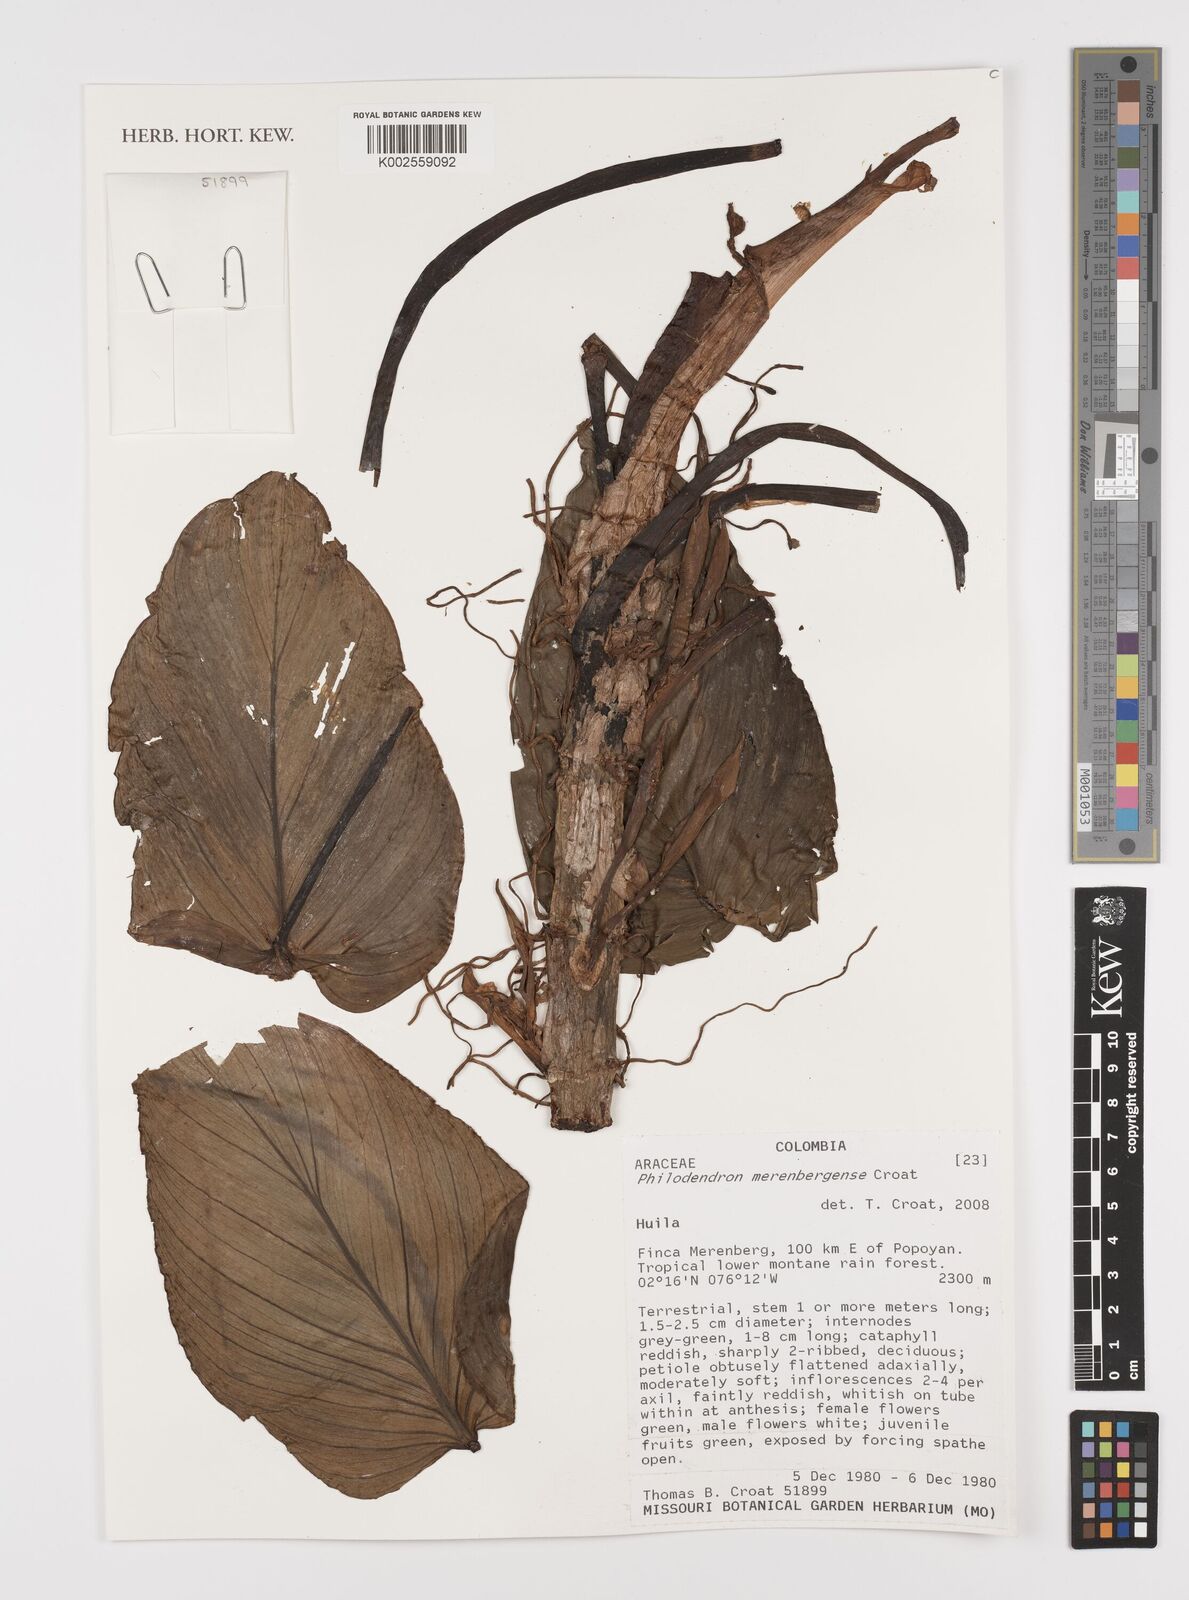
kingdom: Plantae
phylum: Tracheophyta
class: Liliopsida
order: Alismatales
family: Araceae
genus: Philodendron
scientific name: Philodendron merenbergense
